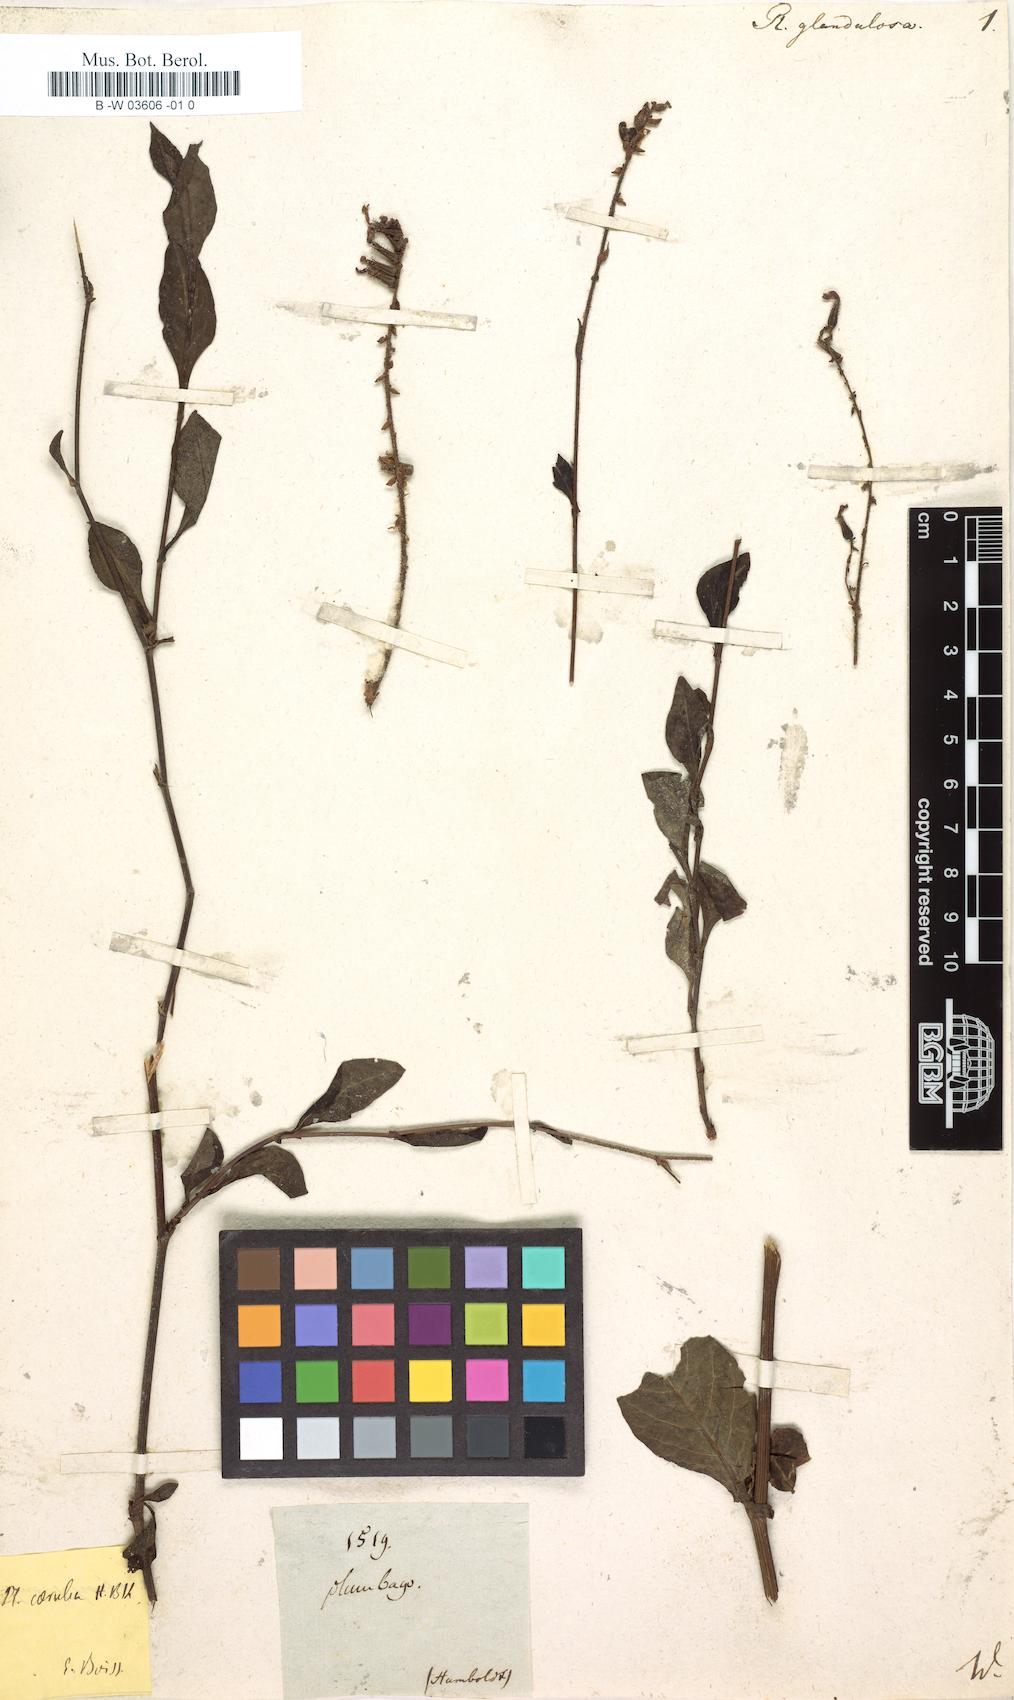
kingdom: Plantae
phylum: Tracheophyta
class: Magnoliopsida
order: Caryophyllales
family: Plumbaginaceae
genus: Plumbago
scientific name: Plumbago caerulea
